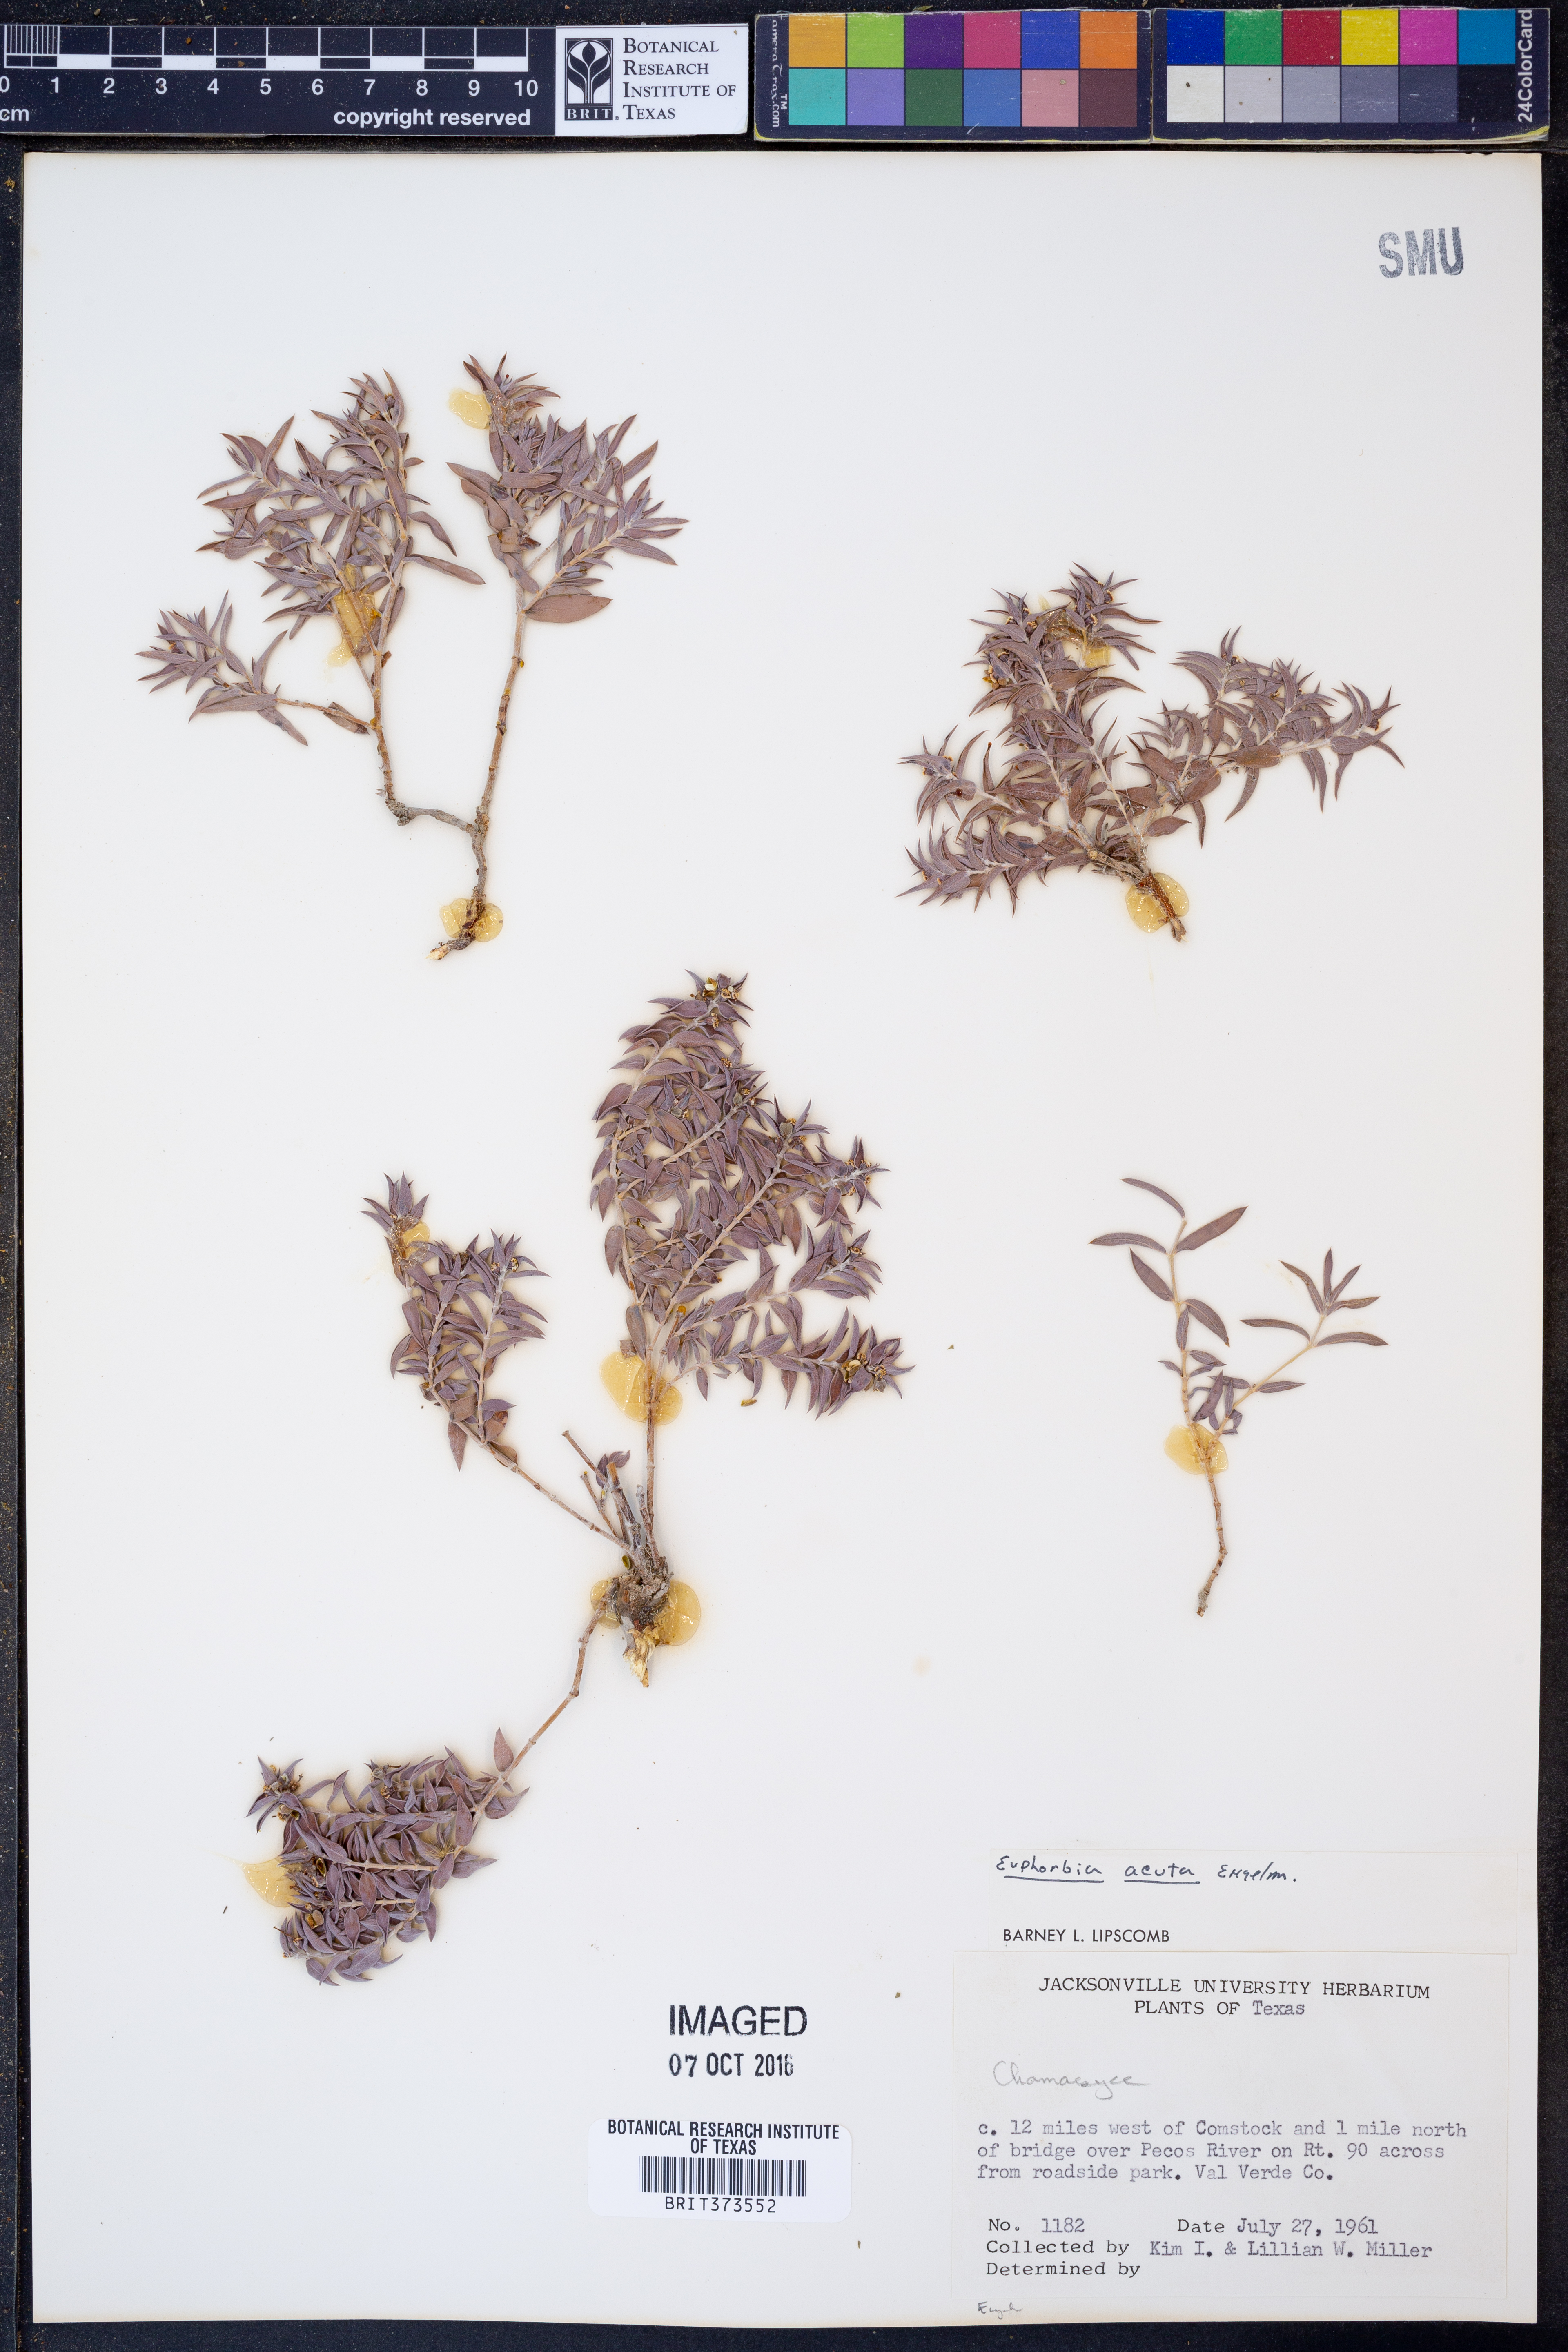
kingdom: Plantae
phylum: Tracheophyta
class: Magnoliopsida
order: Malpighiales
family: Euphorbiaceae
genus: Euphorbia
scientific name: Euphorbia acuta
